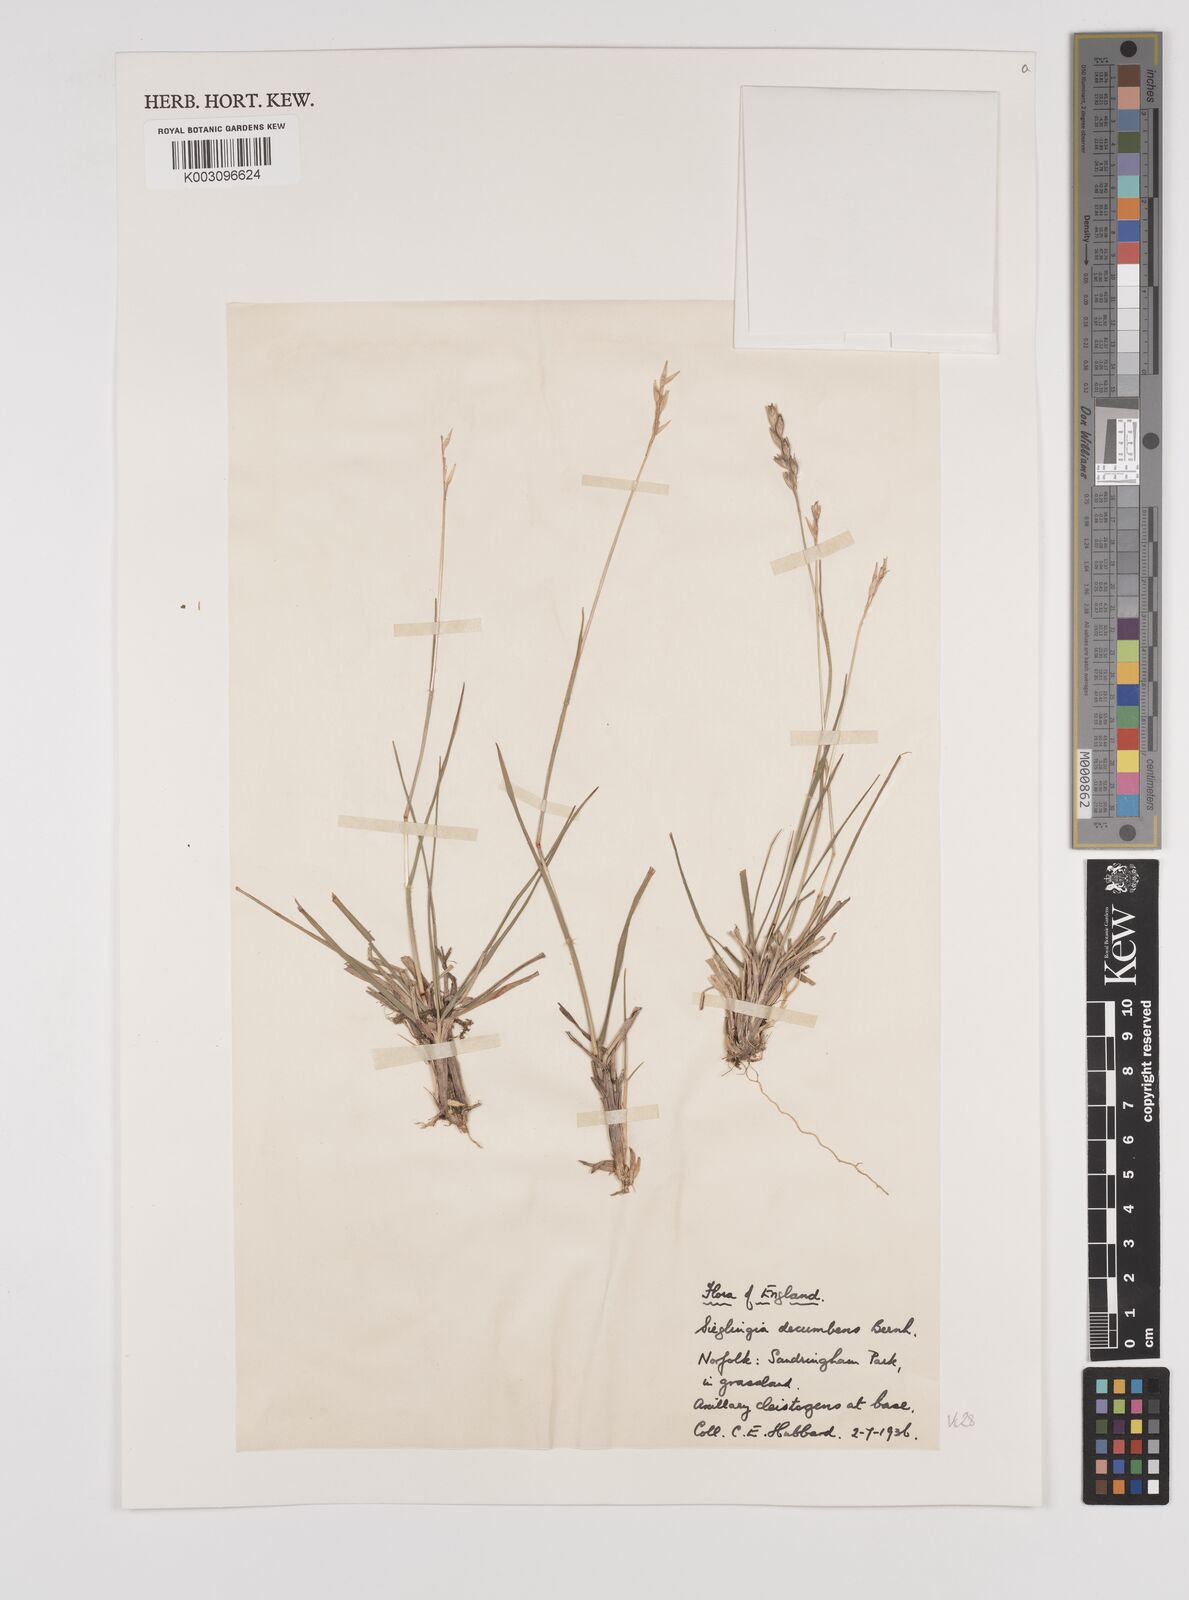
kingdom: Plantae
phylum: Tracheophyta
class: Liliopsida
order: Poales
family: Poaceae
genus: Danthonia
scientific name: Danthonia decumbens
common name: Common heathgrass
